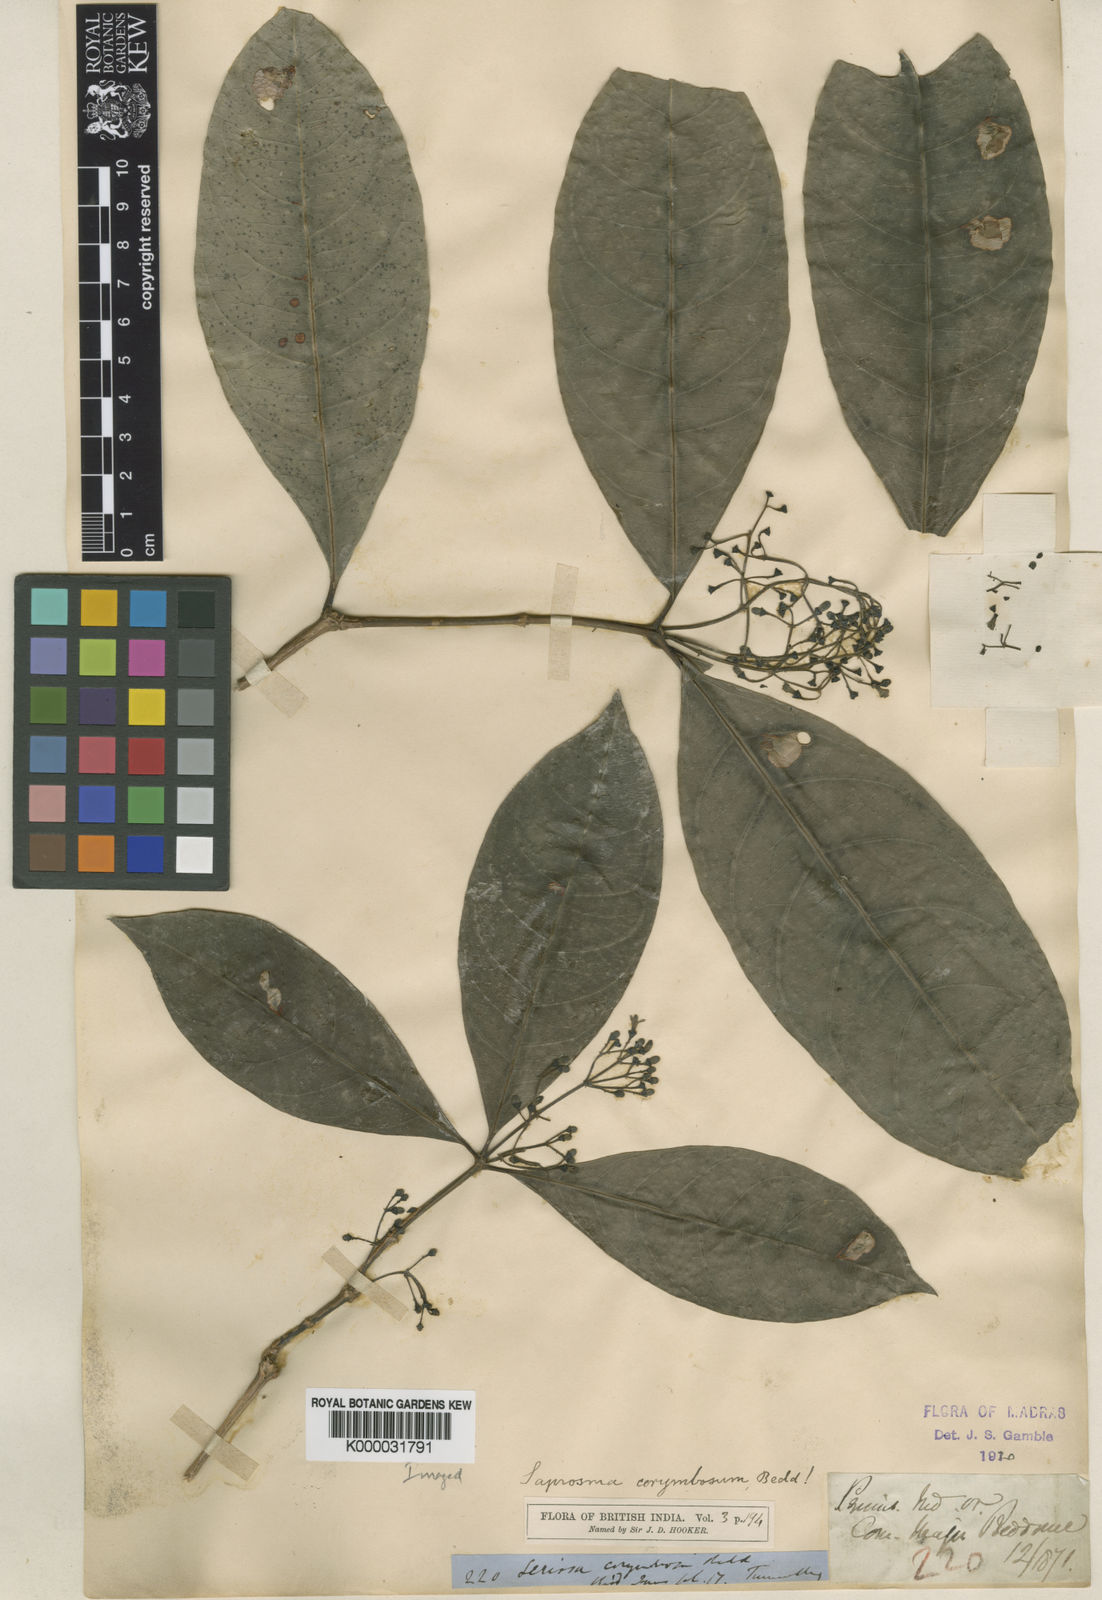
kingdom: Plantae
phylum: Tracheophyta
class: Magnoliopsida
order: Gentianales
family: Rubiaceae
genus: Saprosma
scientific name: Saprosma corymbosa
